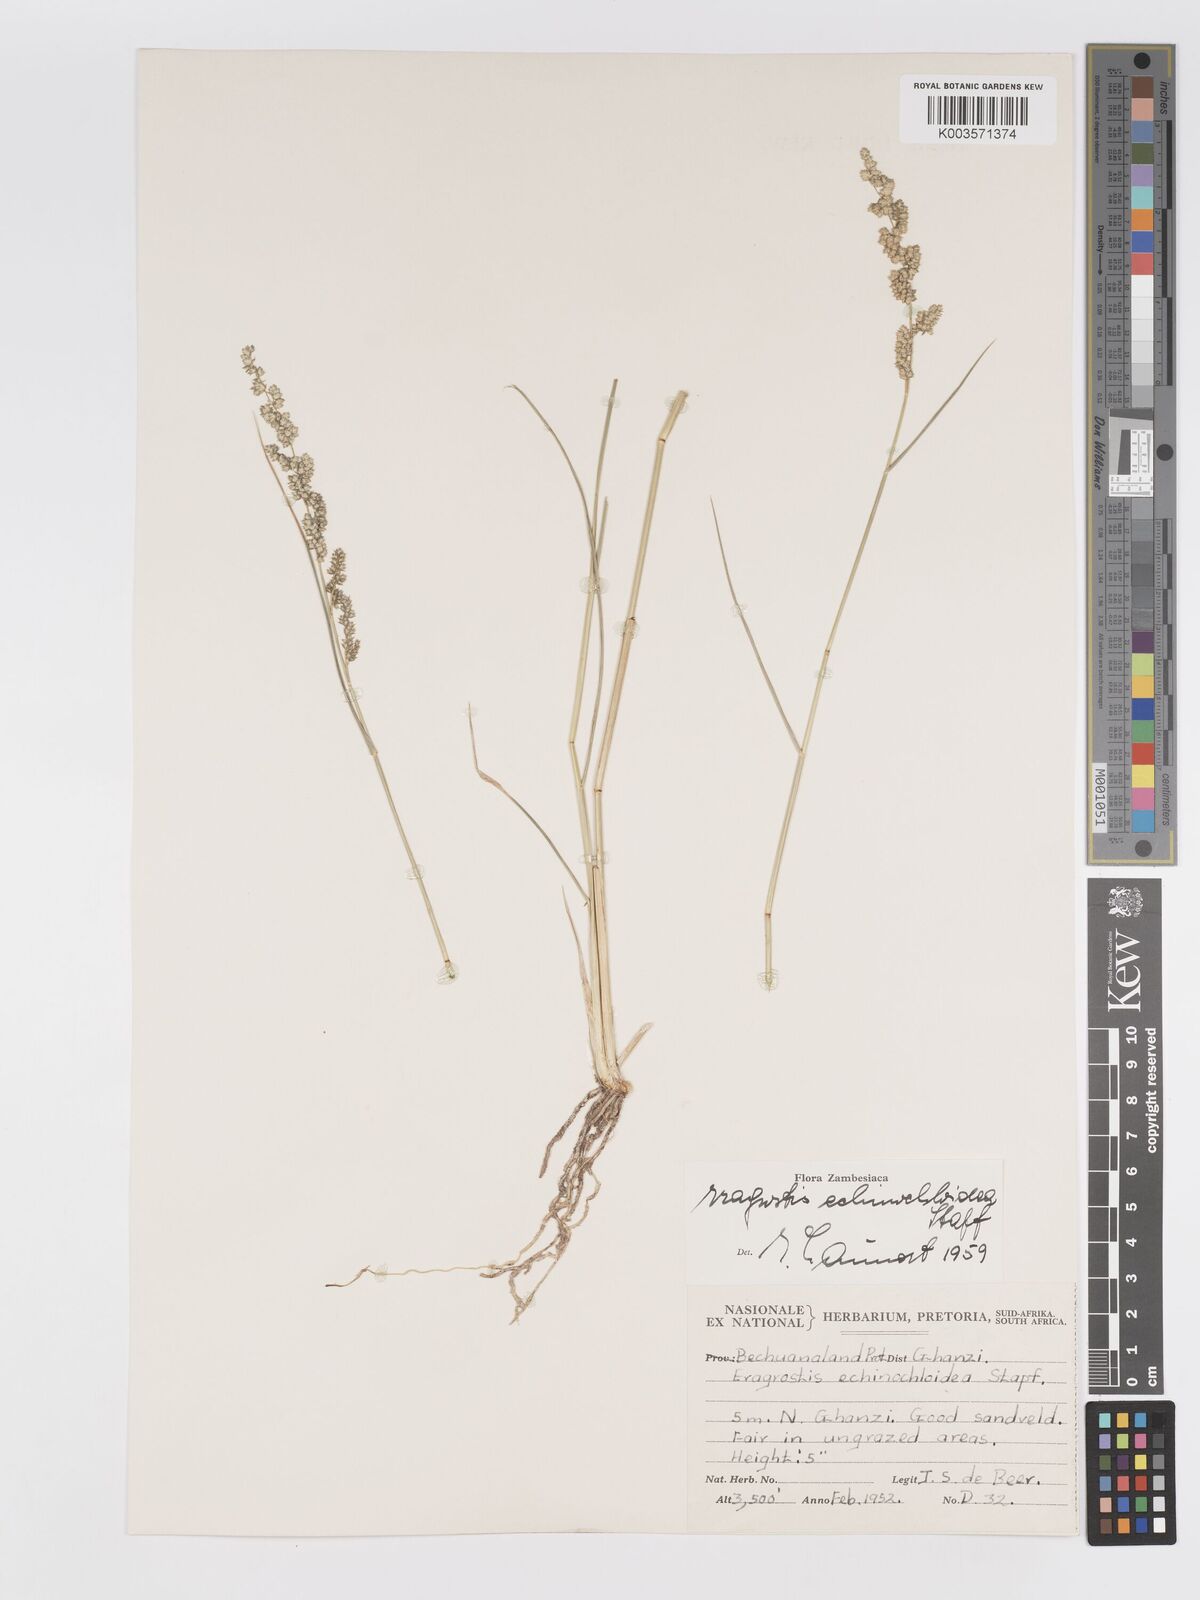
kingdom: Plantae
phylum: Tracheophyta
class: Liliopsida
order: Poales
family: Poaceae
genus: Eragrostis
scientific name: Eragrostis echinochloidea
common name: African lovegrass
